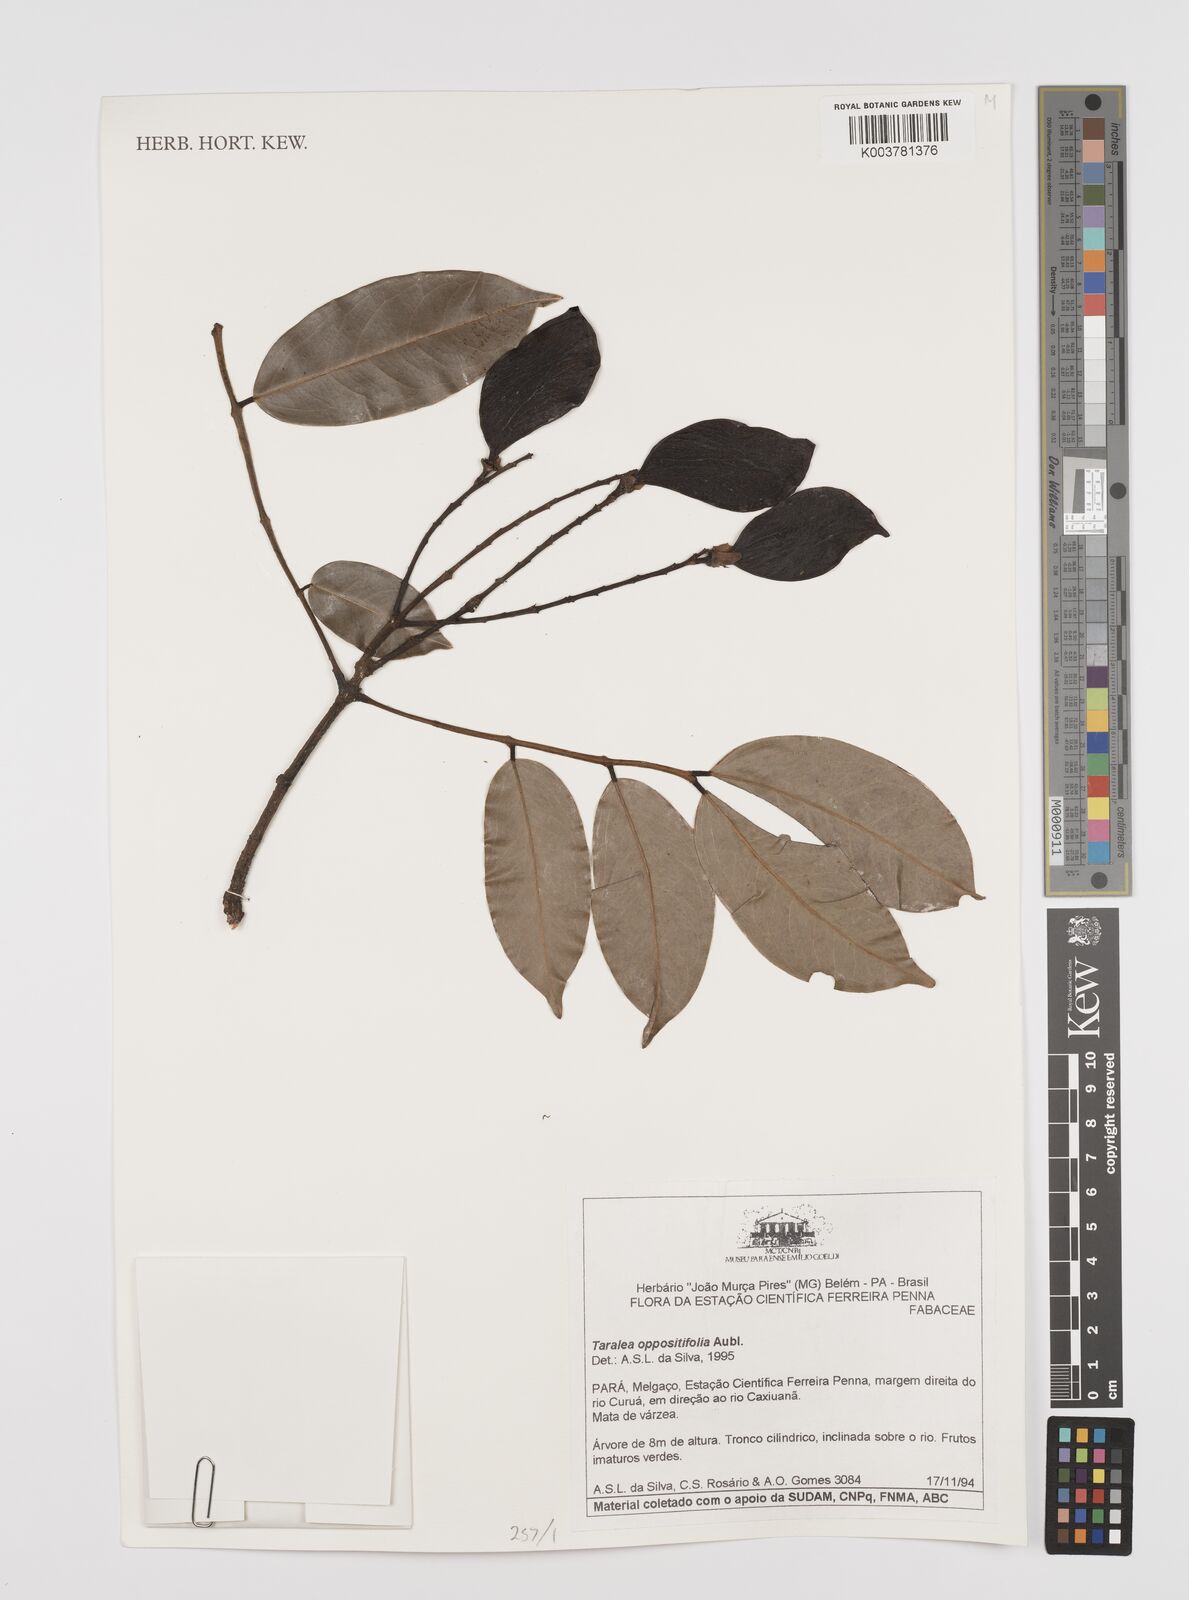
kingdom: Plantae
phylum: Tracheophyta
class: Magnoliopsida
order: Fabales
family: Fabaceae
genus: Taralea
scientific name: Taralea oppositifolia
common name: Tonka
